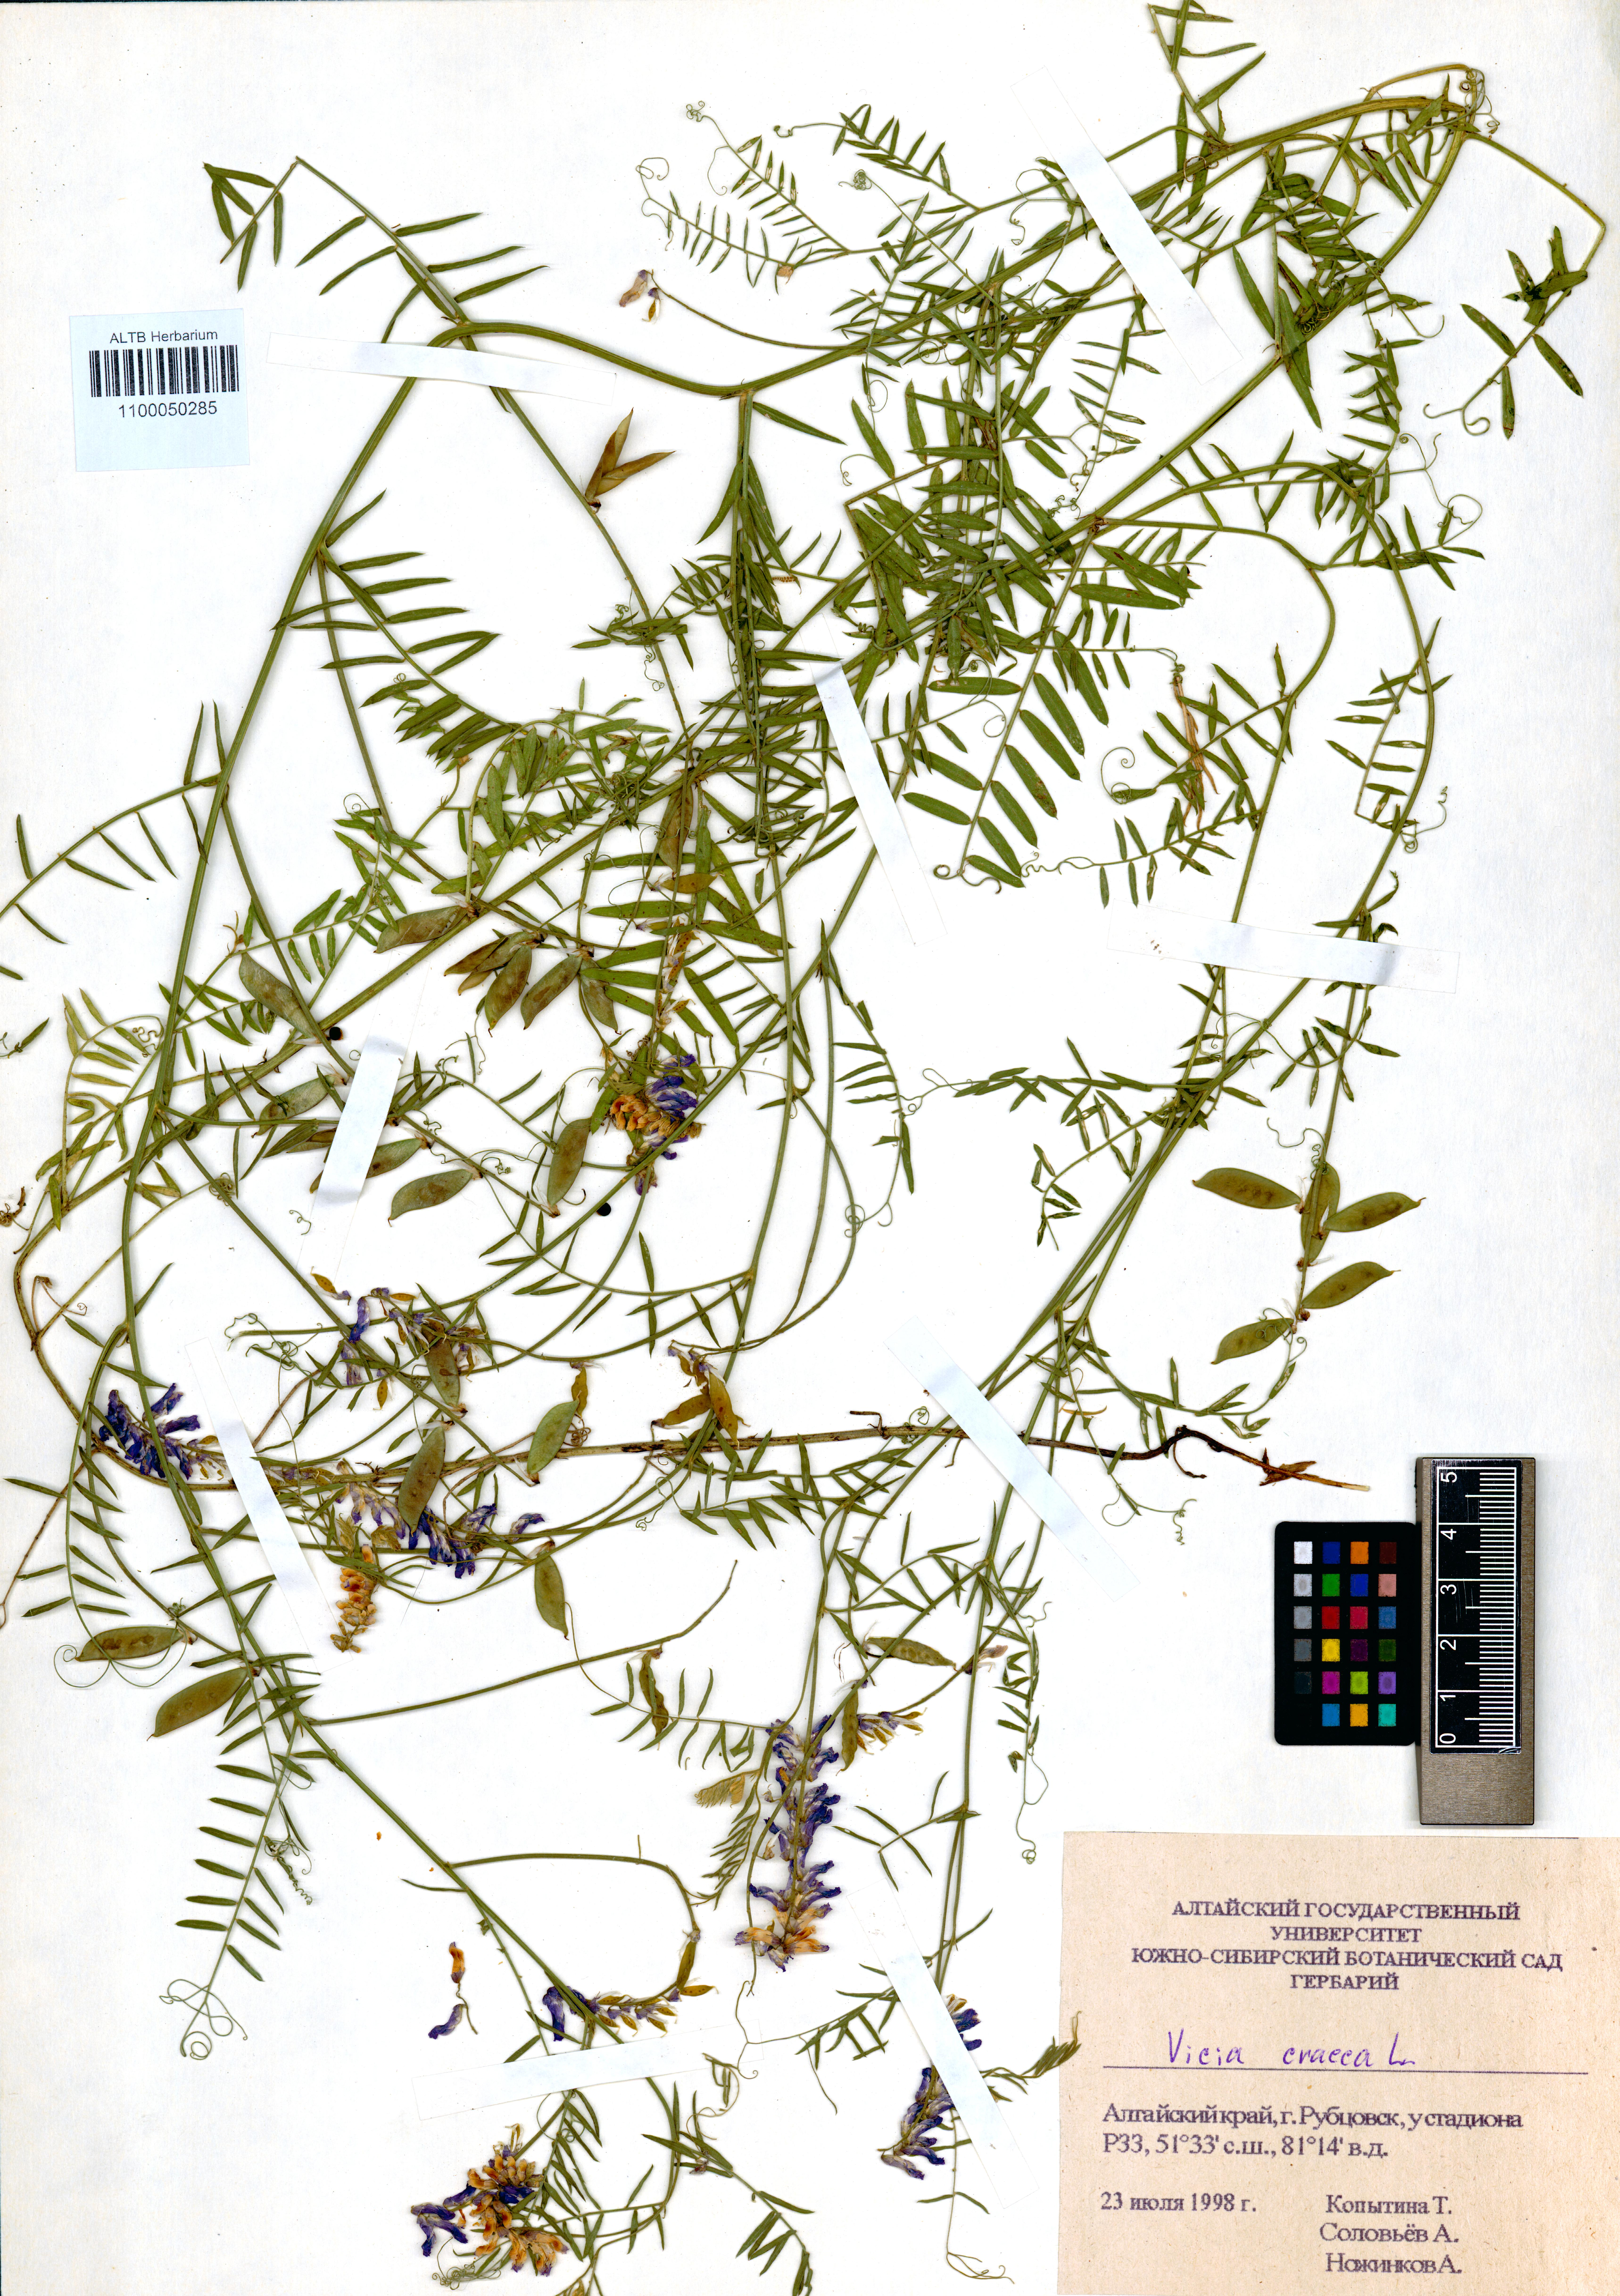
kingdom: Plantae
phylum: Tracheophyta
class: Magnoliopsida
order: Fabales
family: Fabaceae
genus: Vicia
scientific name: Vicia cracca
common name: Bird vetch
